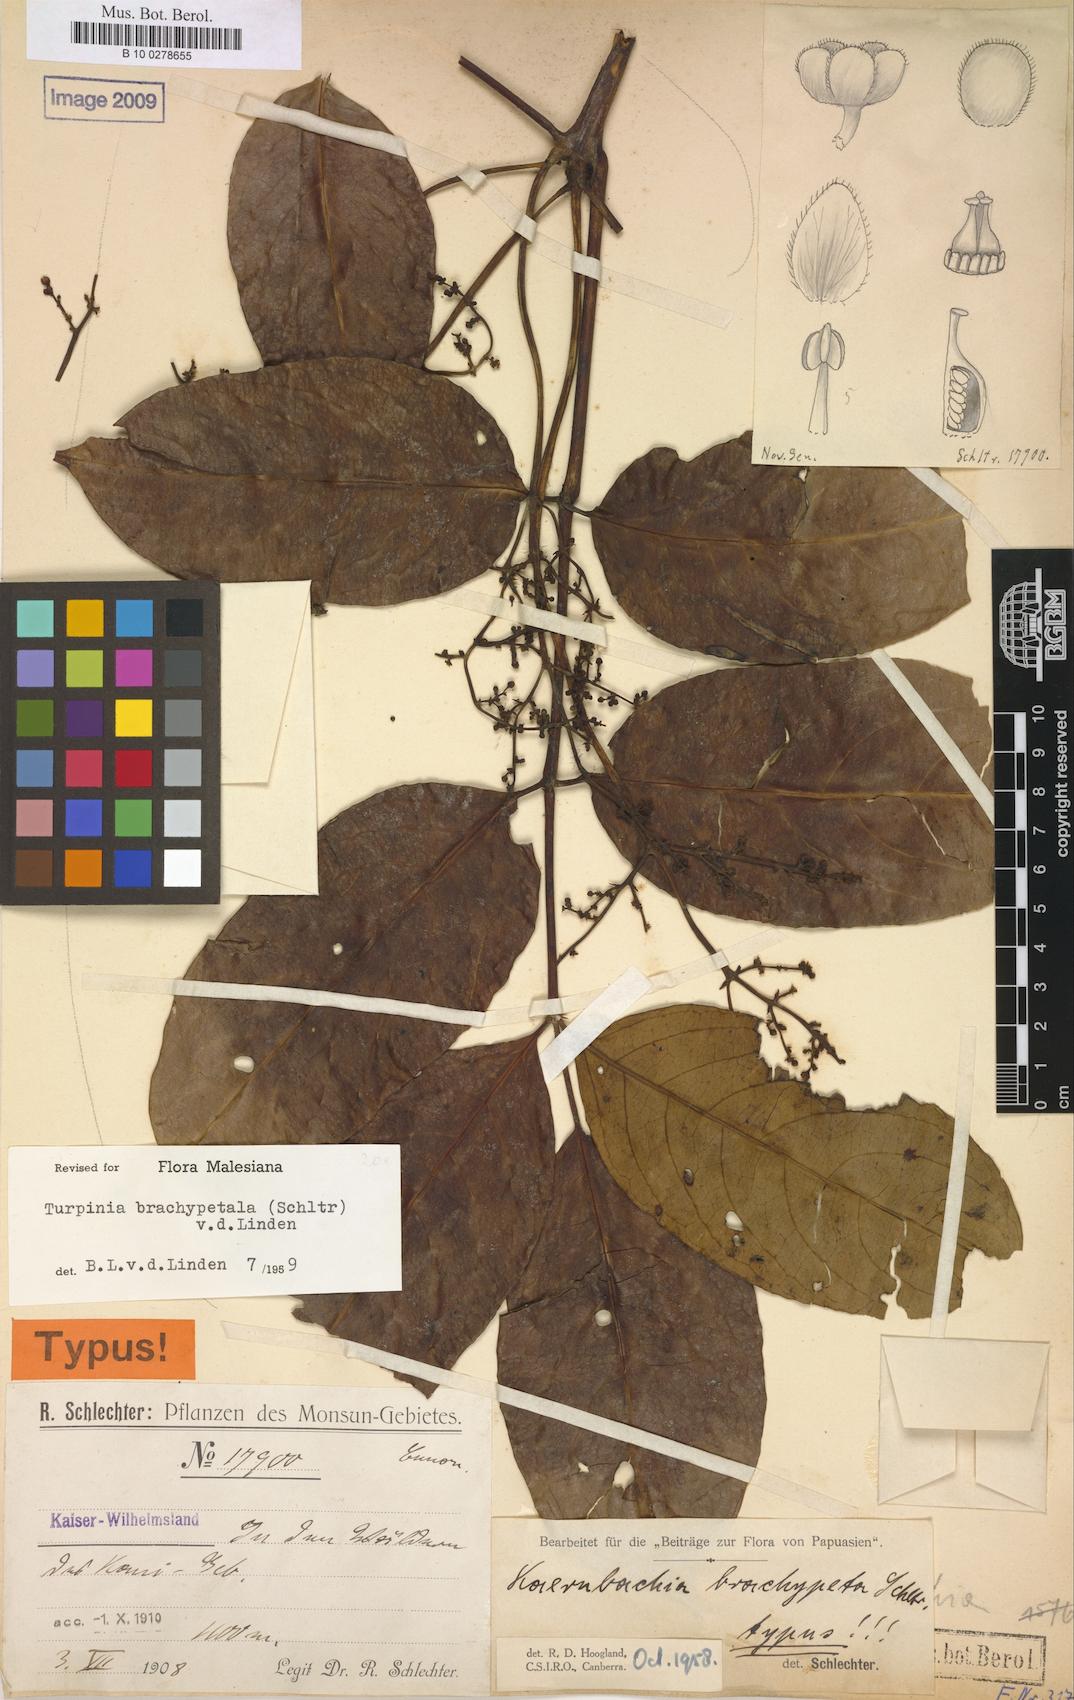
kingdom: Plantae
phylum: Tracheophyta
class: Magnoliopsida
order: Crossosomatales
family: Staphyleaceae
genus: Turpinia
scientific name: Turpinia brachypetala
